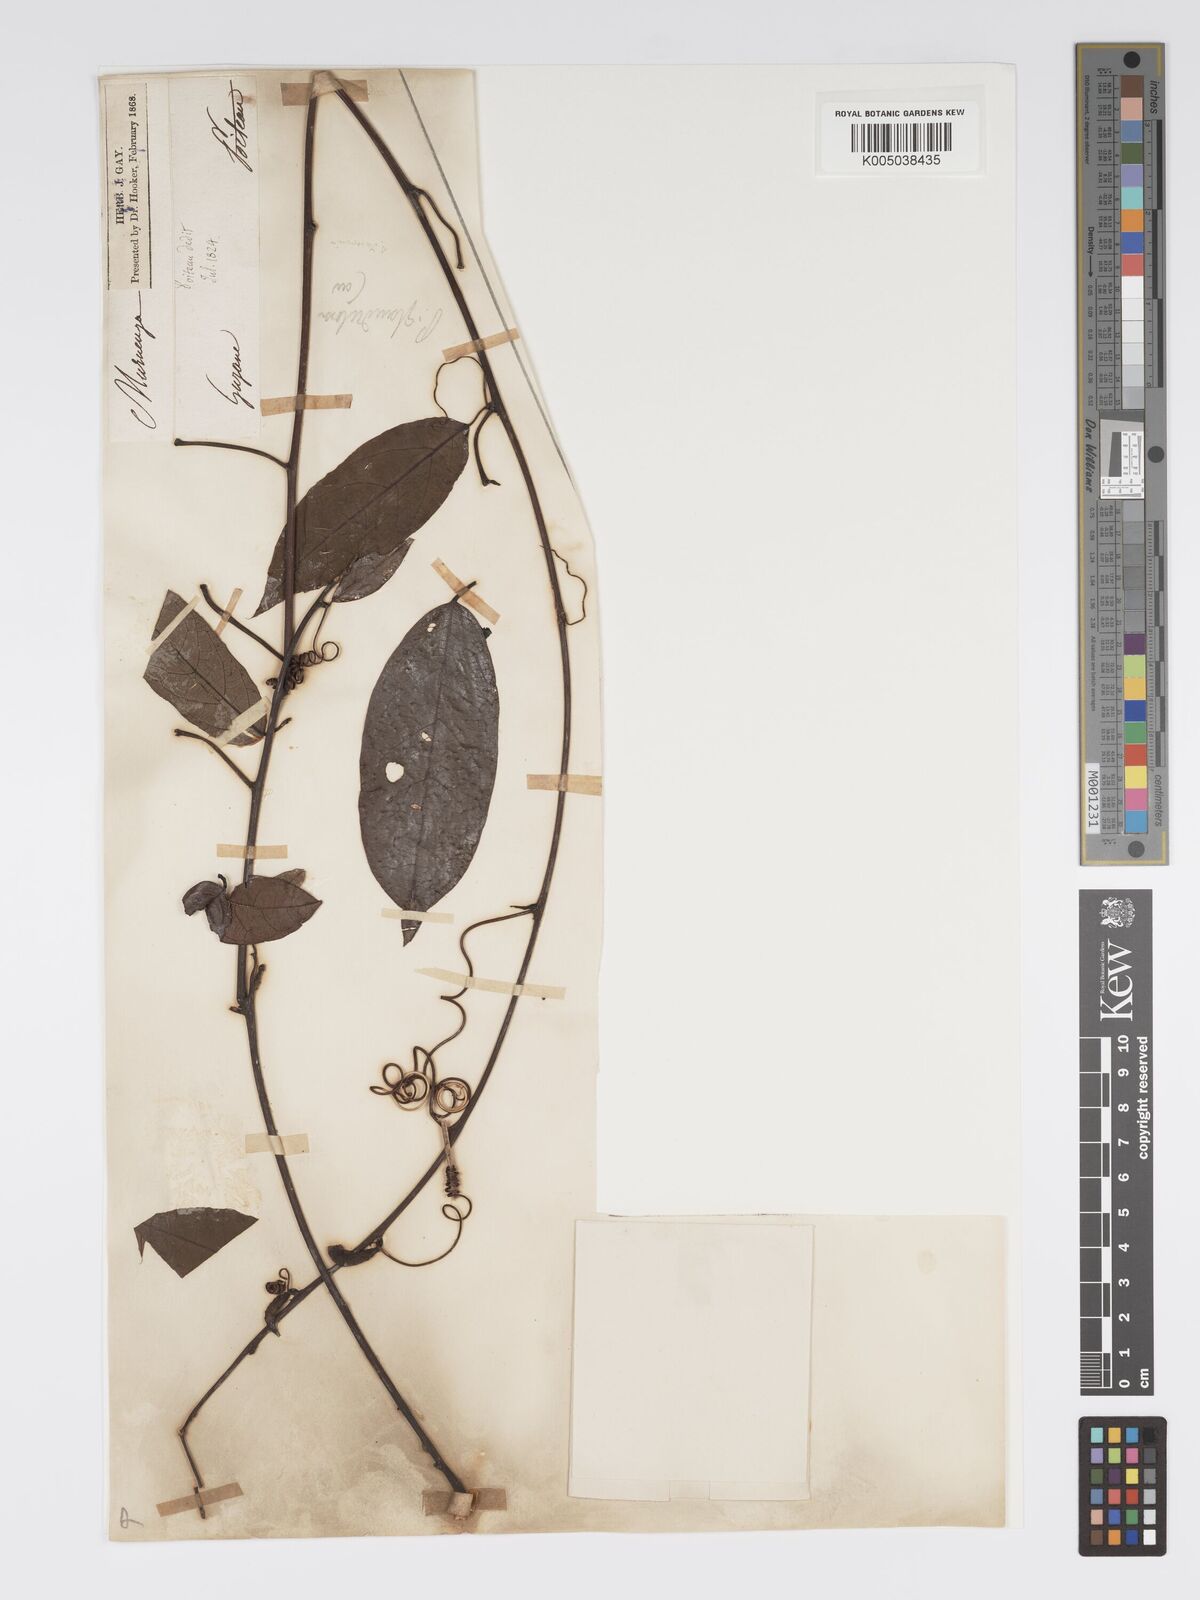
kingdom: Plantae
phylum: Tracheophyta
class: Magnoliopsida
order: Malpighiales
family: Passifloraceae
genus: Passiflora
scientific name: Passiflora glandulosa
